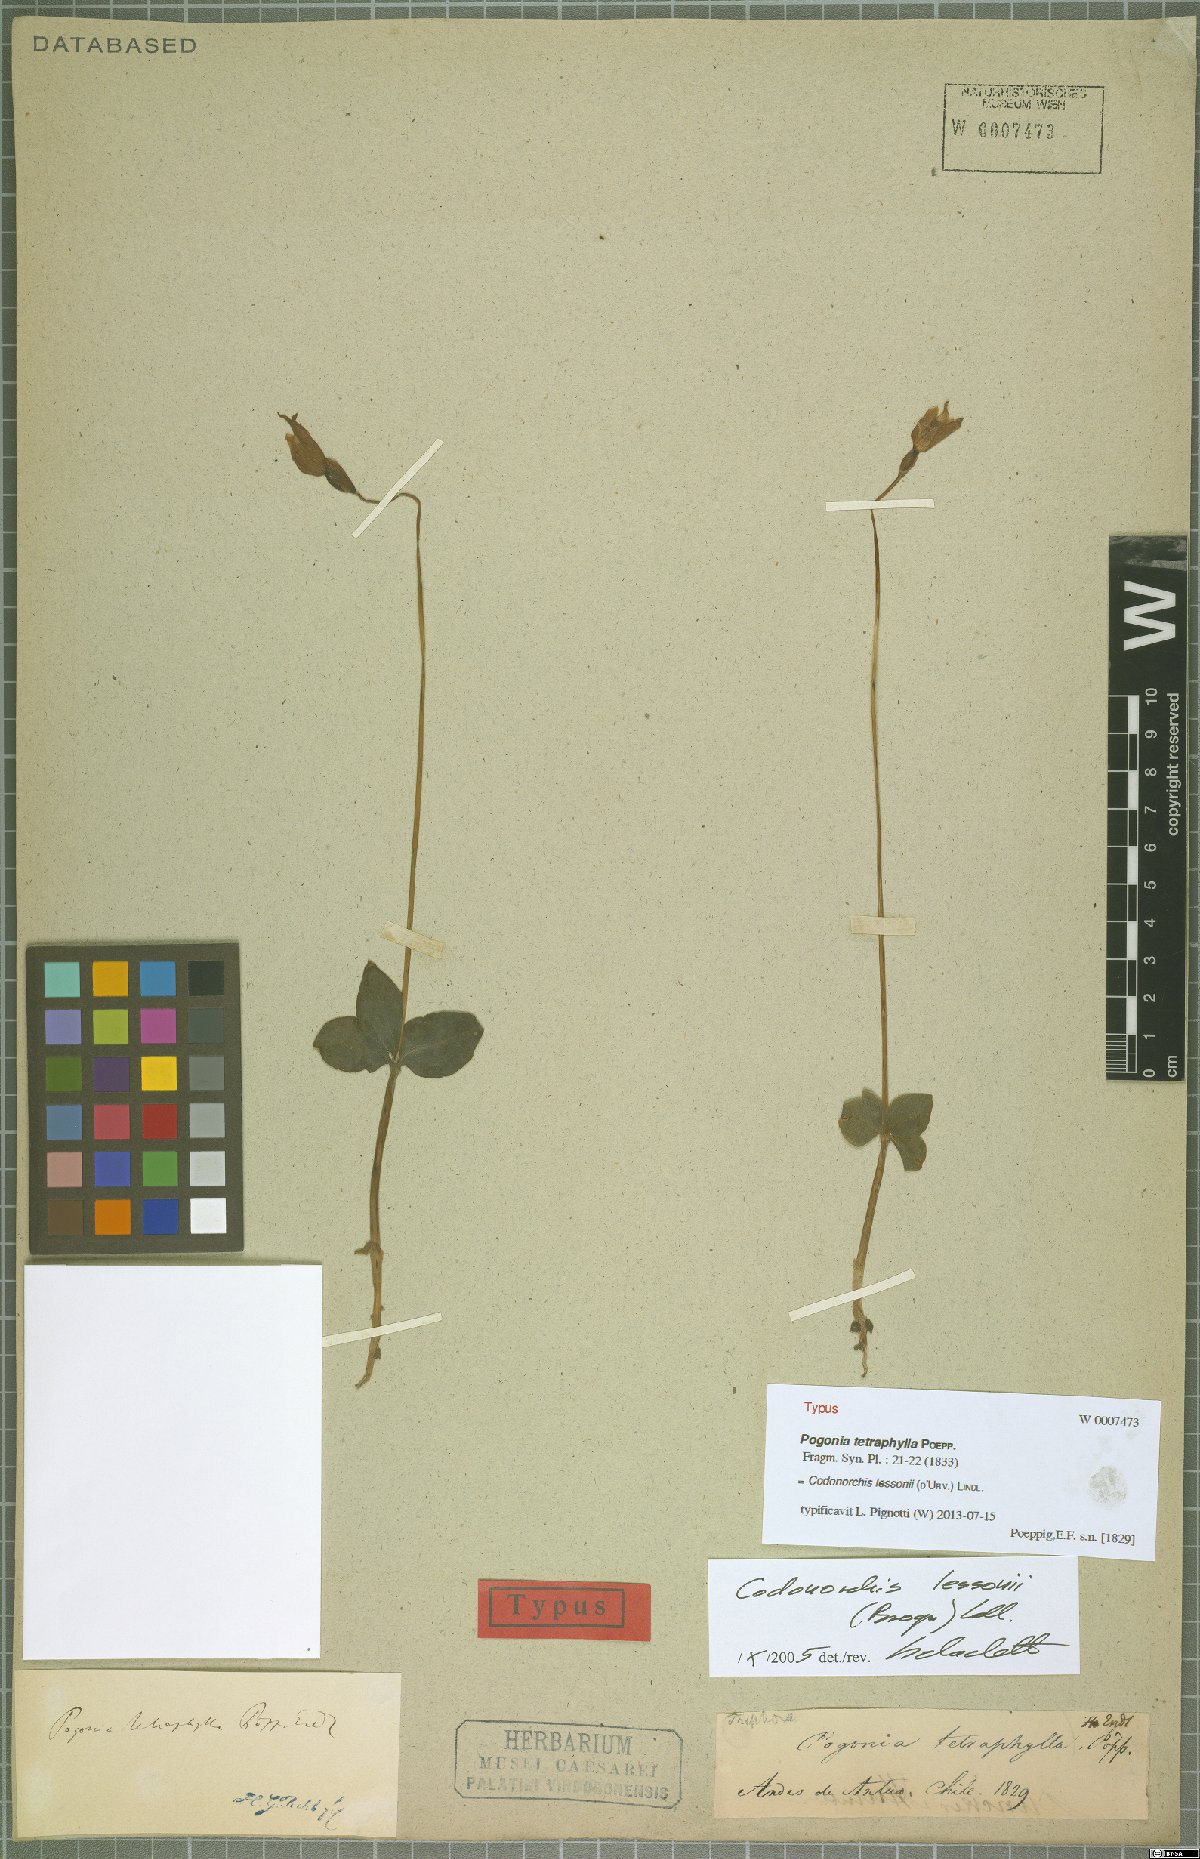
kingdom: Plantae
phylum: Tracheophyta
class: Liliopsida
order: Asparagales
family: Orchidaceae
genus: Codonorchis
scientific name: Codonorchis lessonii
